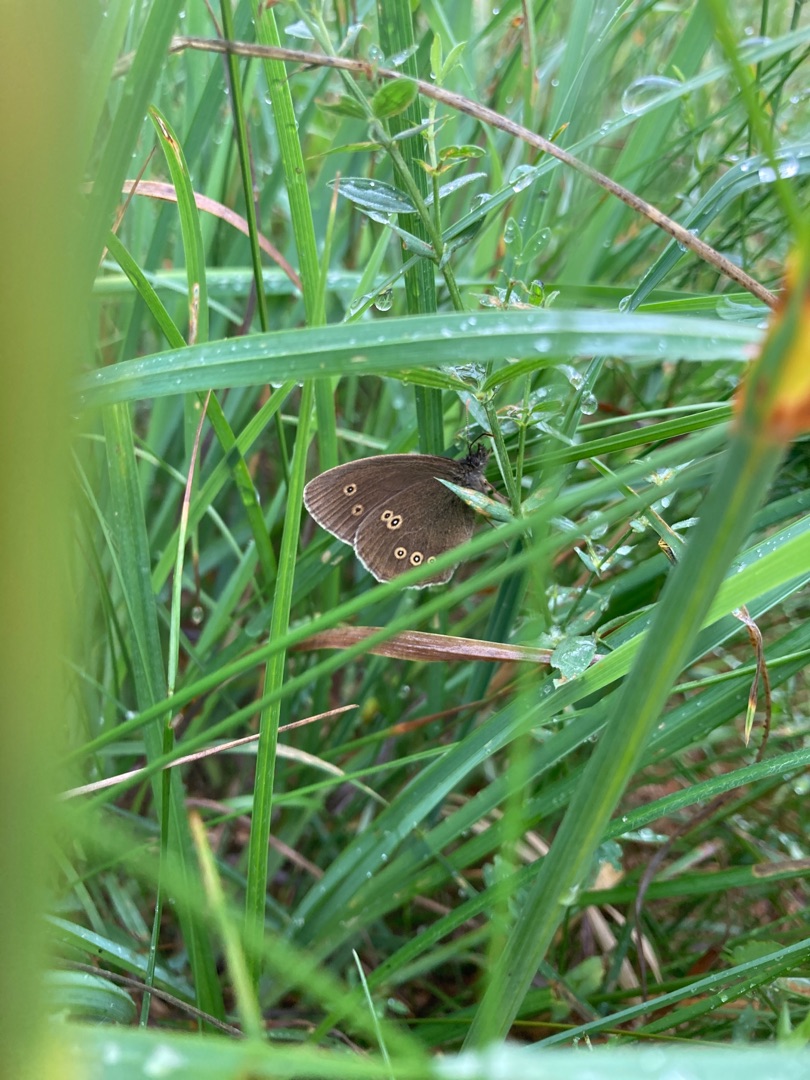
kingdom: Animalia
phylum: Arthropoda
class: Insecta
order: Lepidoptera
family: Nymphalidae
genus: Aphantopus
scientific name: Aphantopus hyperantus
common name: Engrandøje
